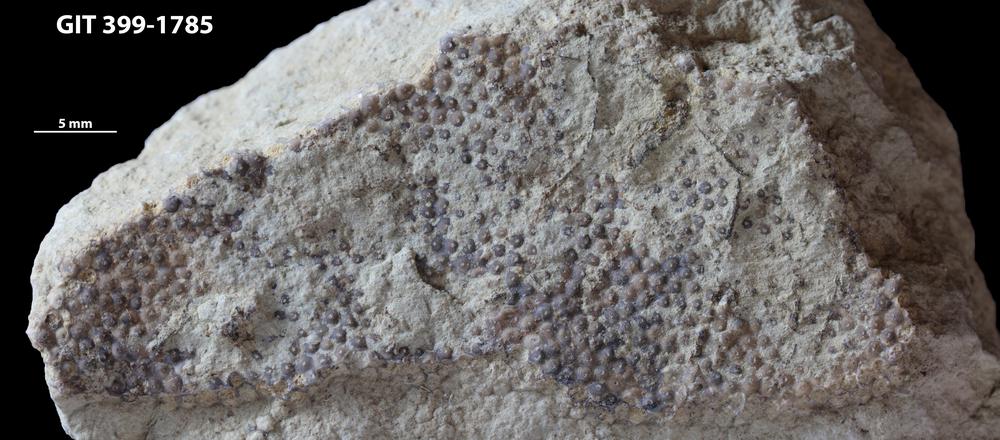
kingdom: Plantae
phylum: Chlorophyta
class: Ulvophyceae
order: Cyclocrinales
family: Cyclocrinaceae
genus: Mastopora
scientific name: Mastopora concava
